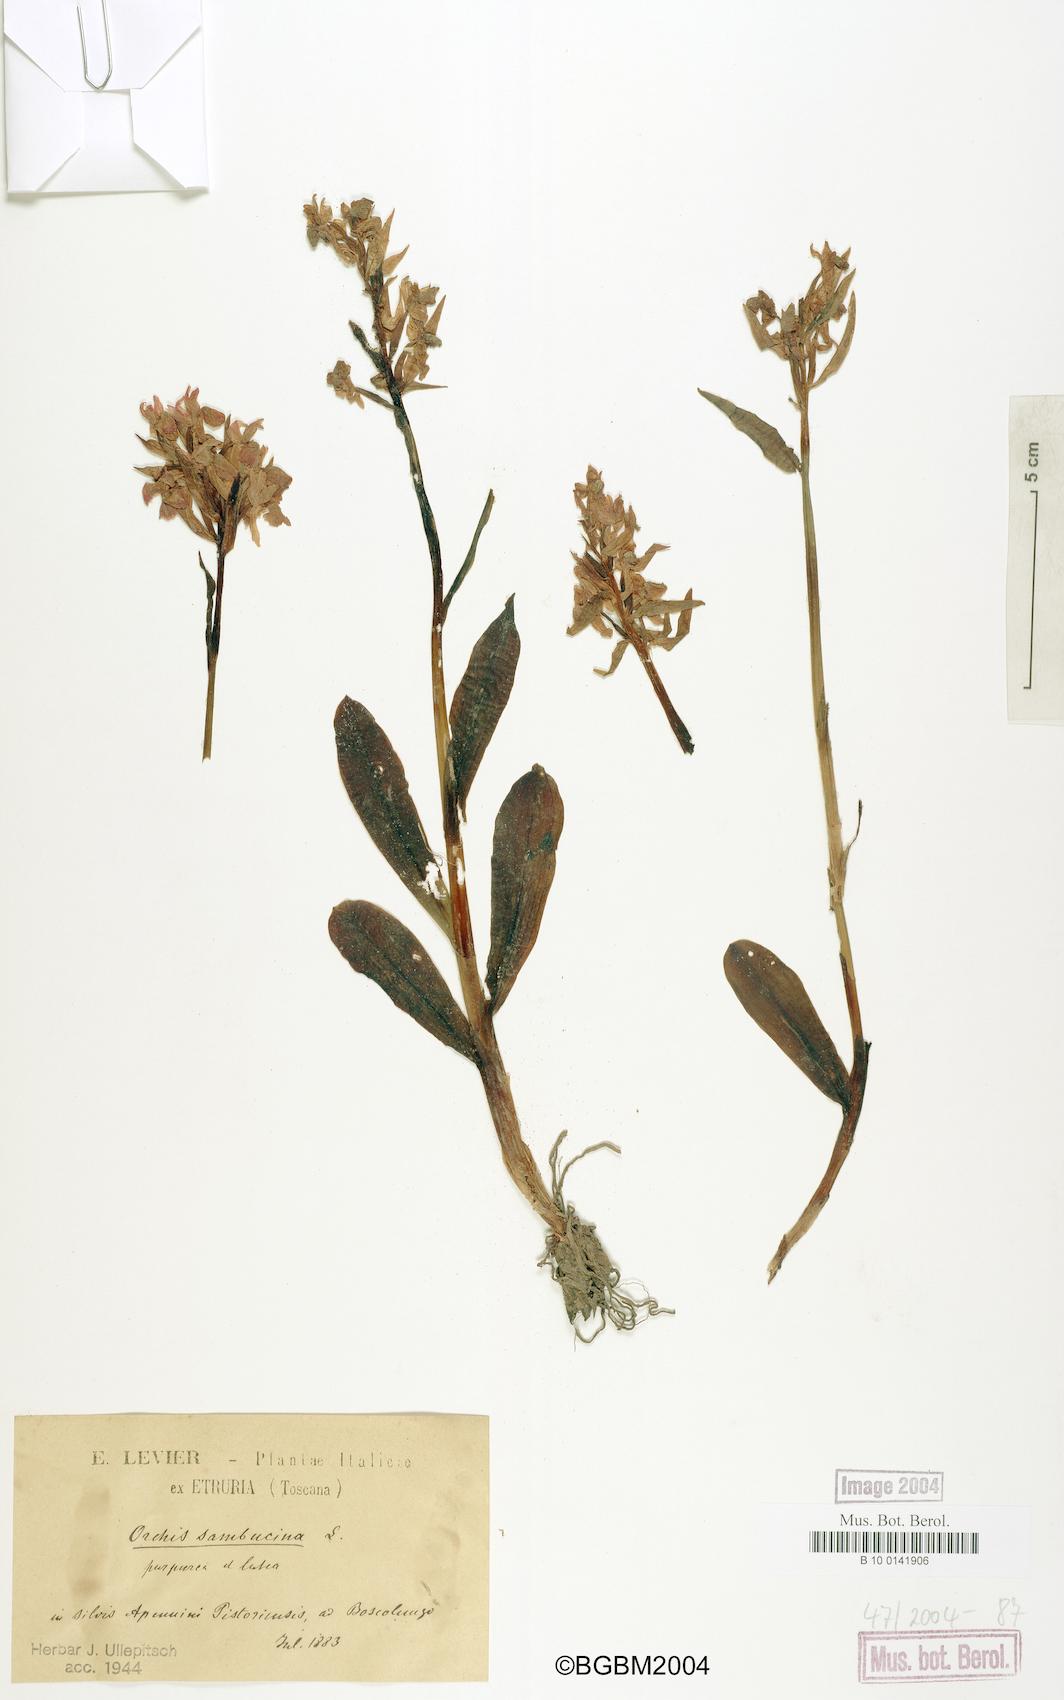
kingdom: Plantae
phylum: Tracheophyta
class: Liliopsida
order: Asparagales
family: Orchidaceae
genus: Dactylorhiza
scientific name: Dactylorhiza sambucina
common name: Elder-flowered orchid
